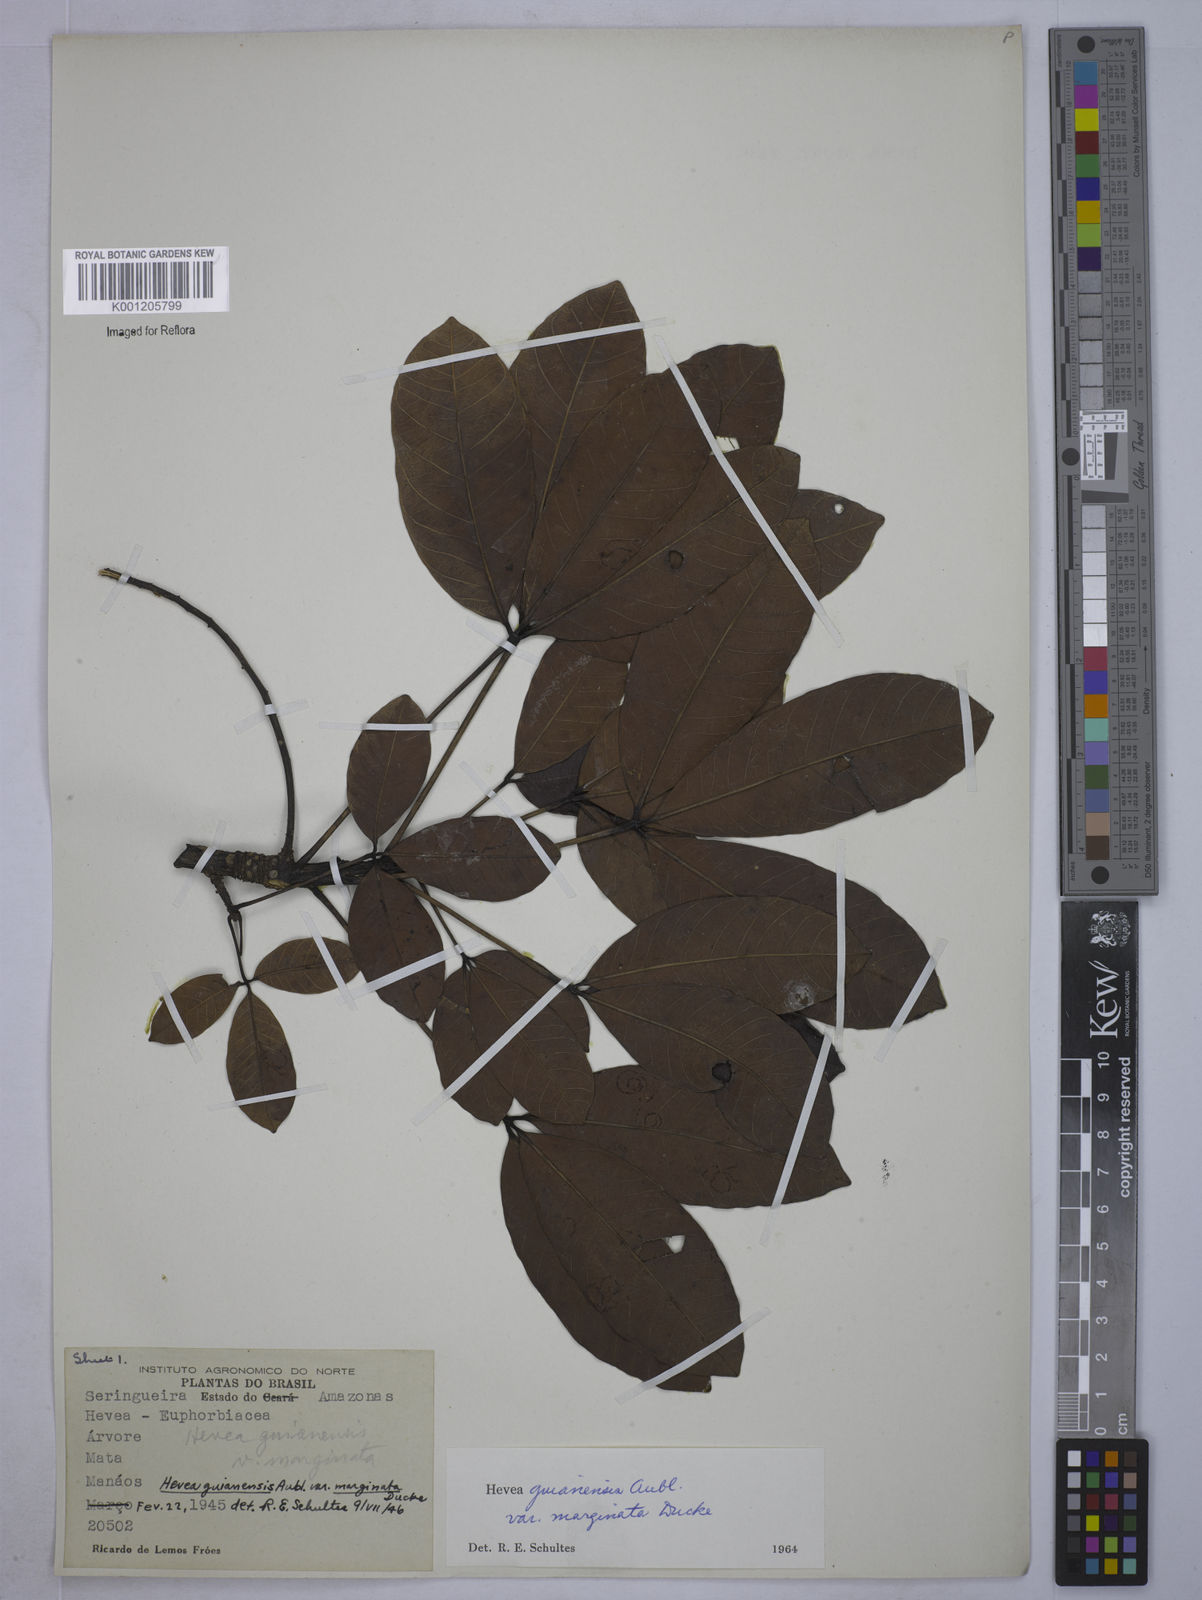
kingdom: Plantae
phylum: Tracheophyta
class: Magnoliopsida
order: Malpighiales
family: Euphorbiaceae
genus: Hevea
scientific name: Hevea guianensis
